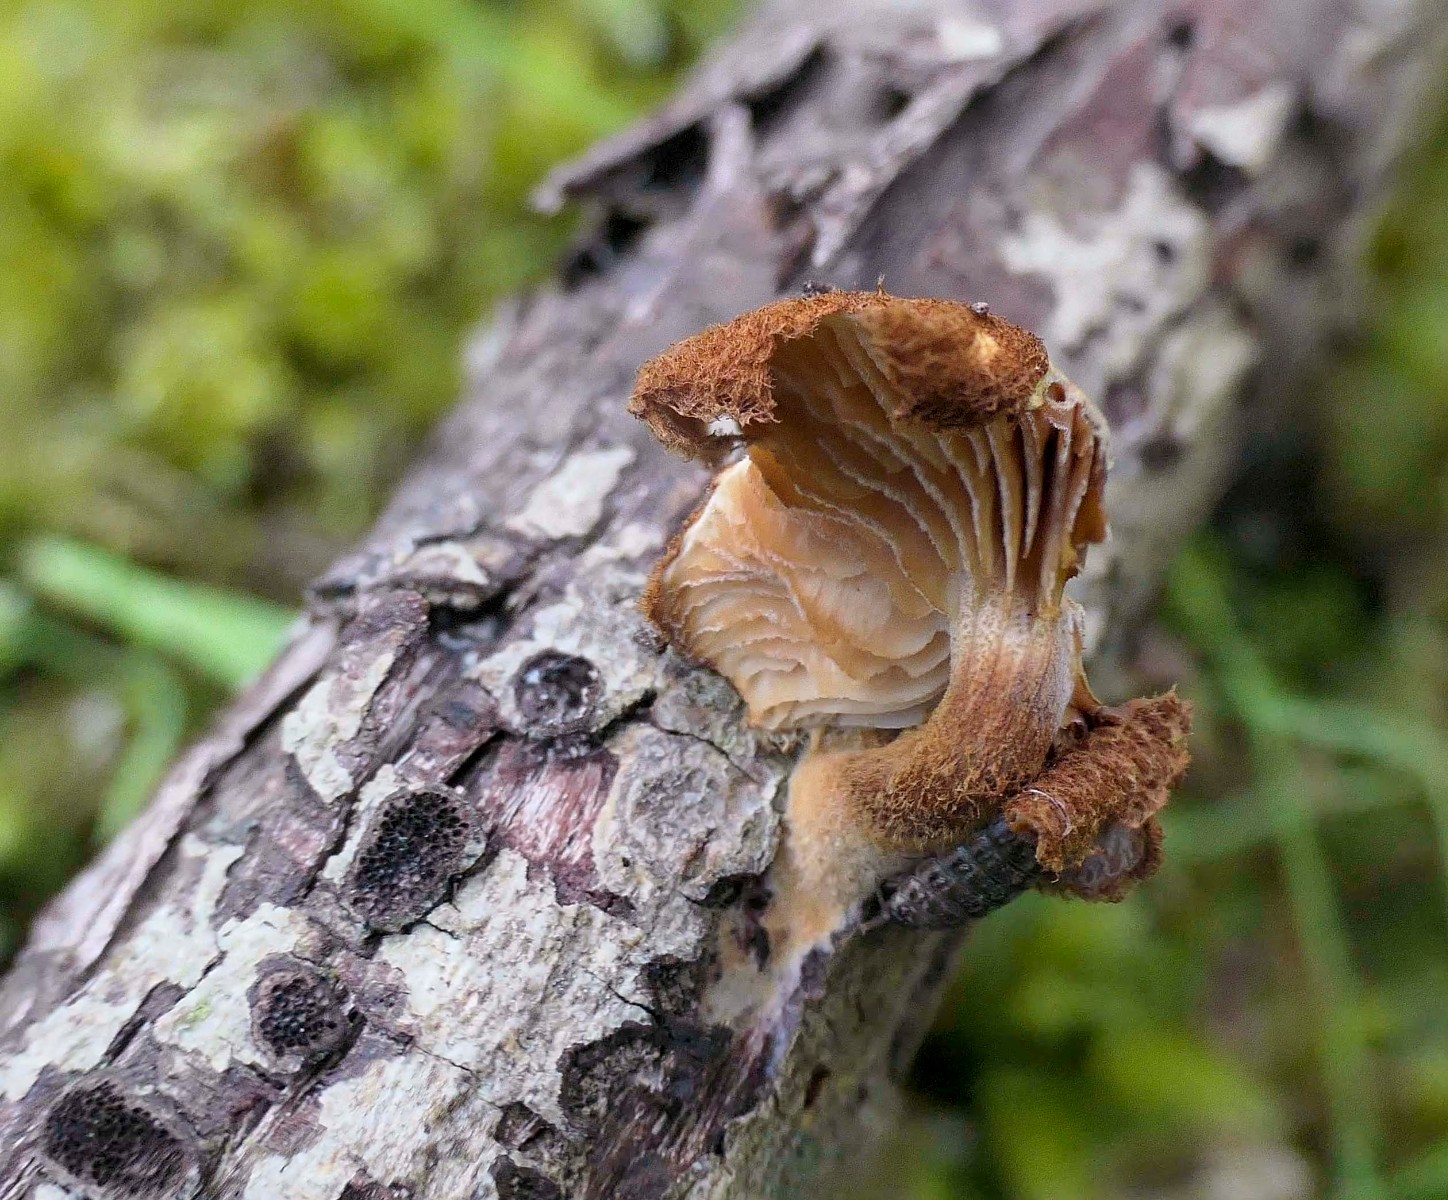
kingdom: Fungi
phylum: Basidiomycota
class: Agaricomycetes
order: Agaricales
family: Tubariaceae
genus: Phaeomarasmius
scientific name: Phaeomarasmius erinaceus
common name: spidsskælhat
